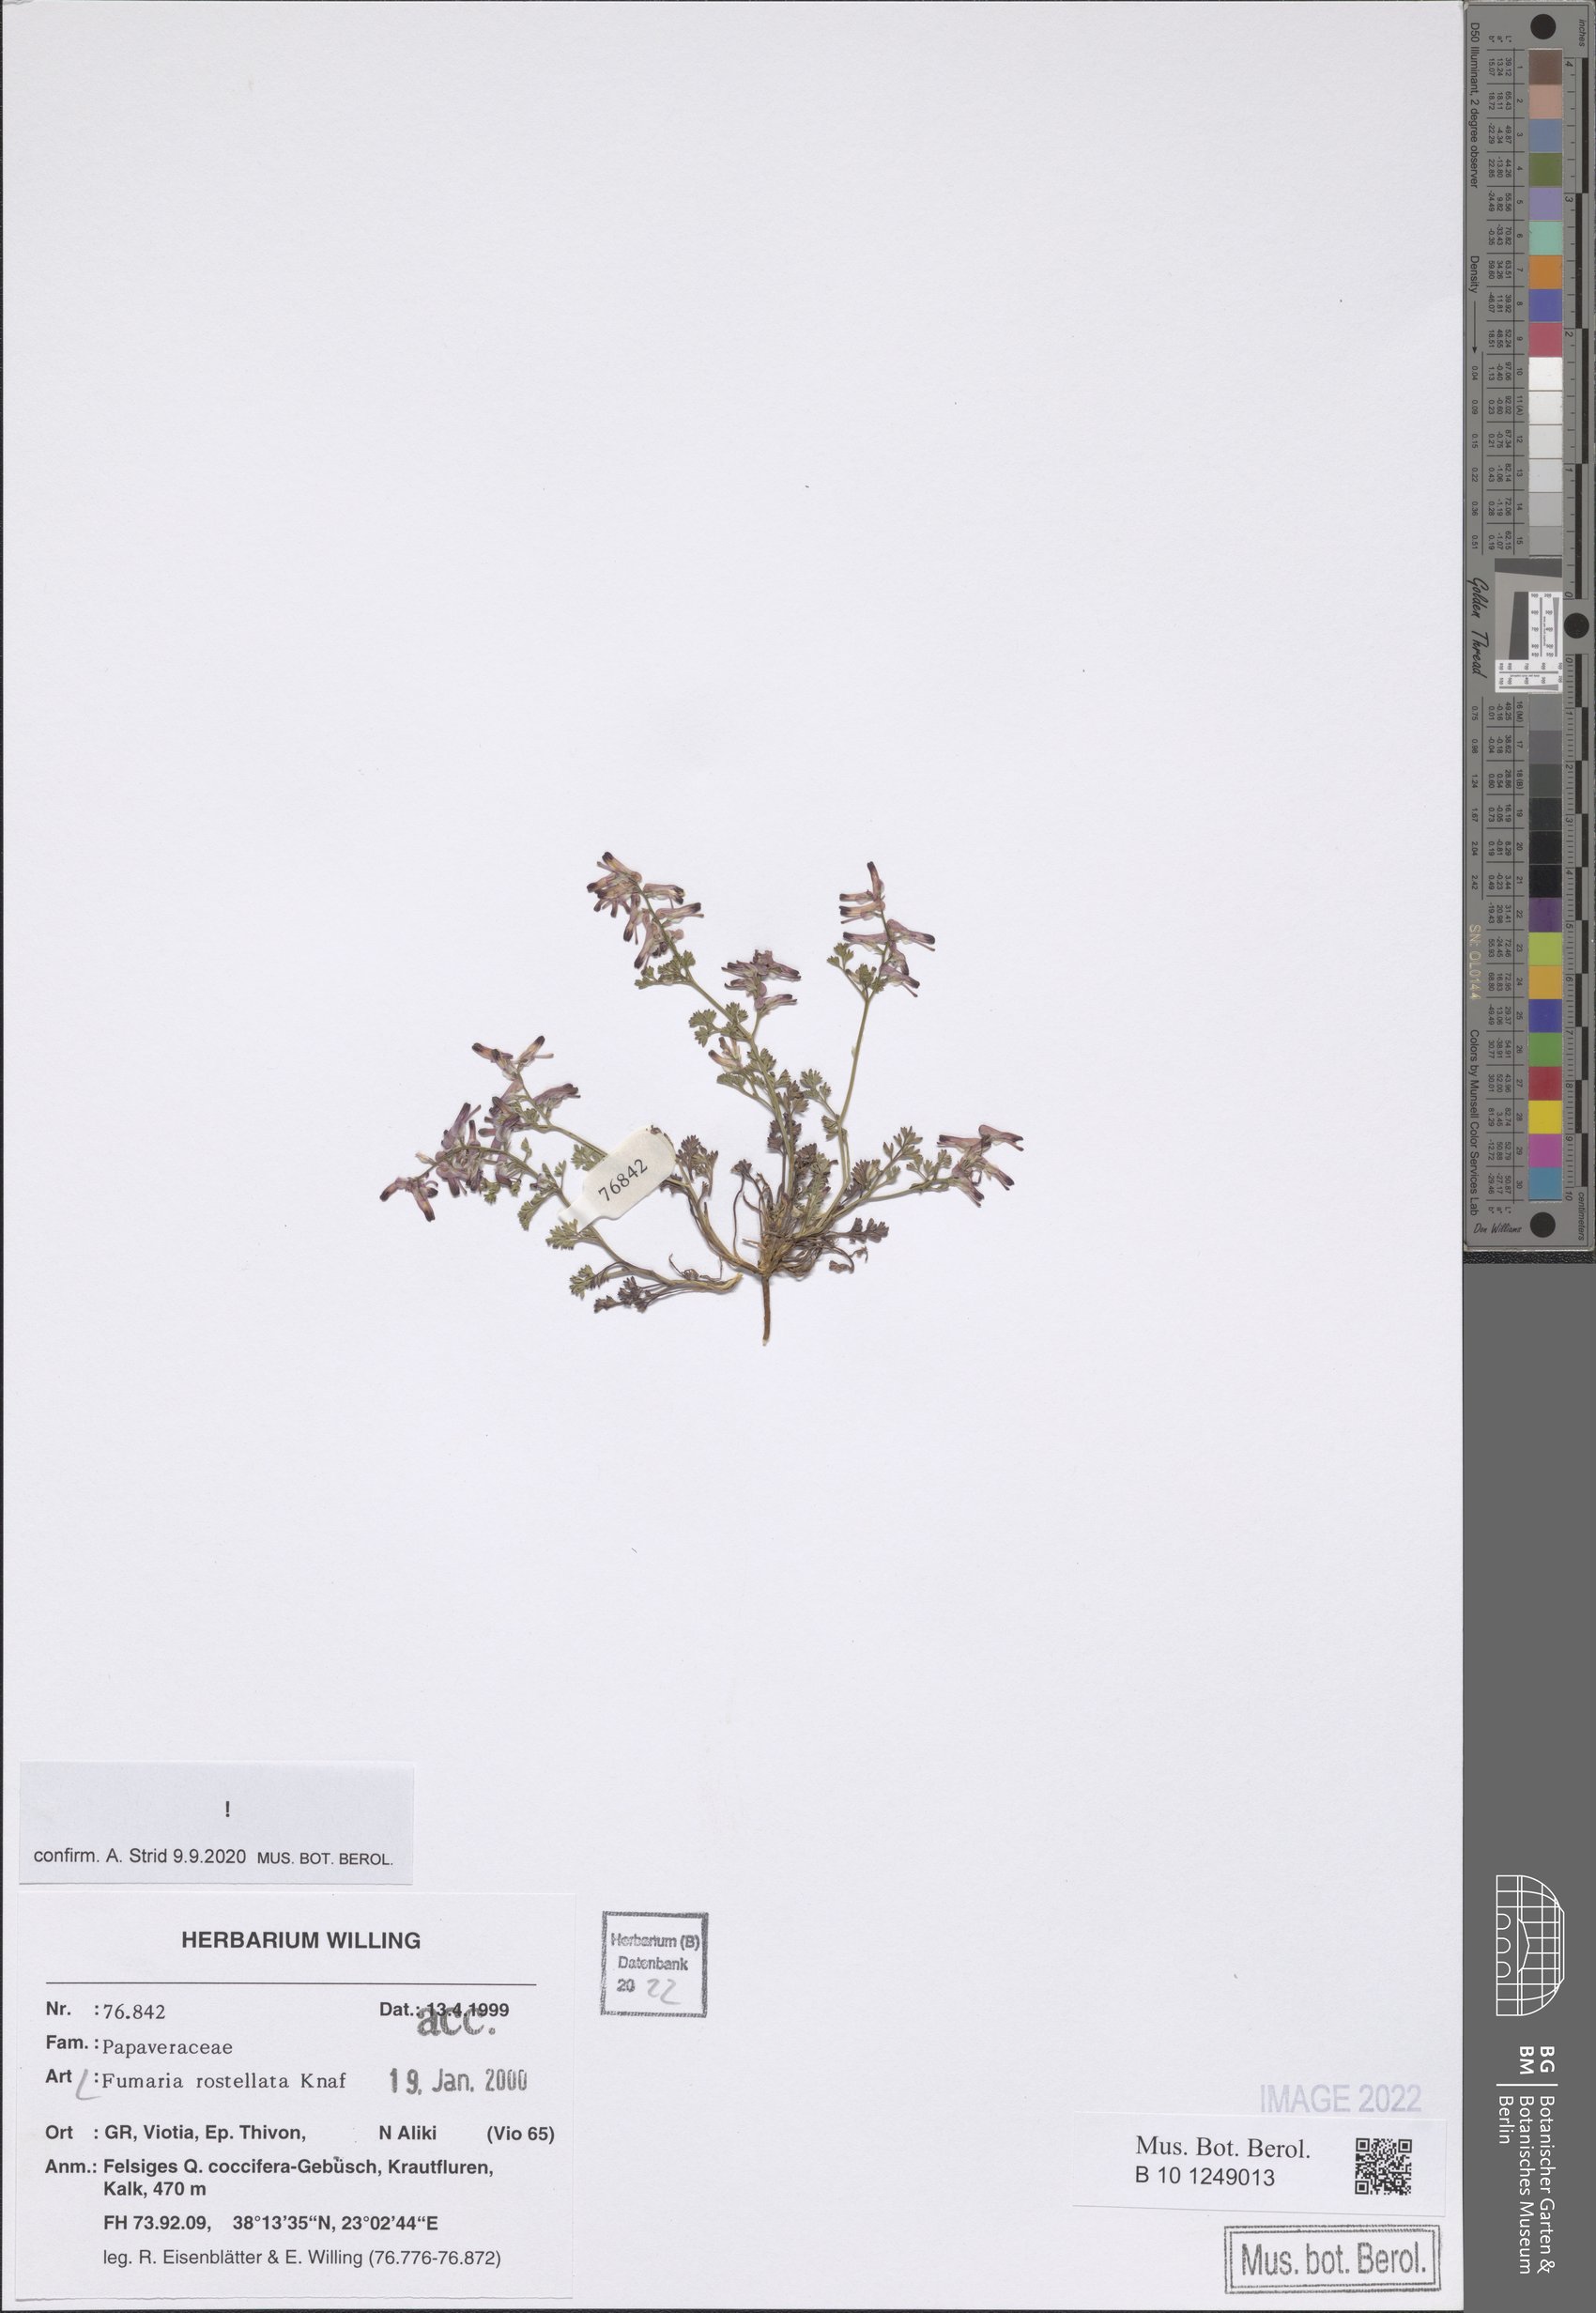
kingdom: Plantae
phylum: Tracheophyta
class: Magnoliopsida
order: Ranunculales
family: Papaveraceae
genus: Fumaria
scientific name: Fumaria rostellata
